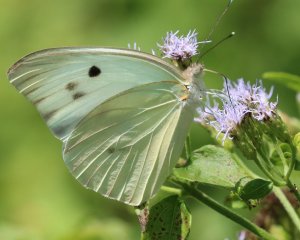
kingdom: Animalia
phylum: Arthropoda
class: Insecta
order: Lepidoptera
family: Pieridae
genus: Ganyra
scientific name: Ganyra josephina
